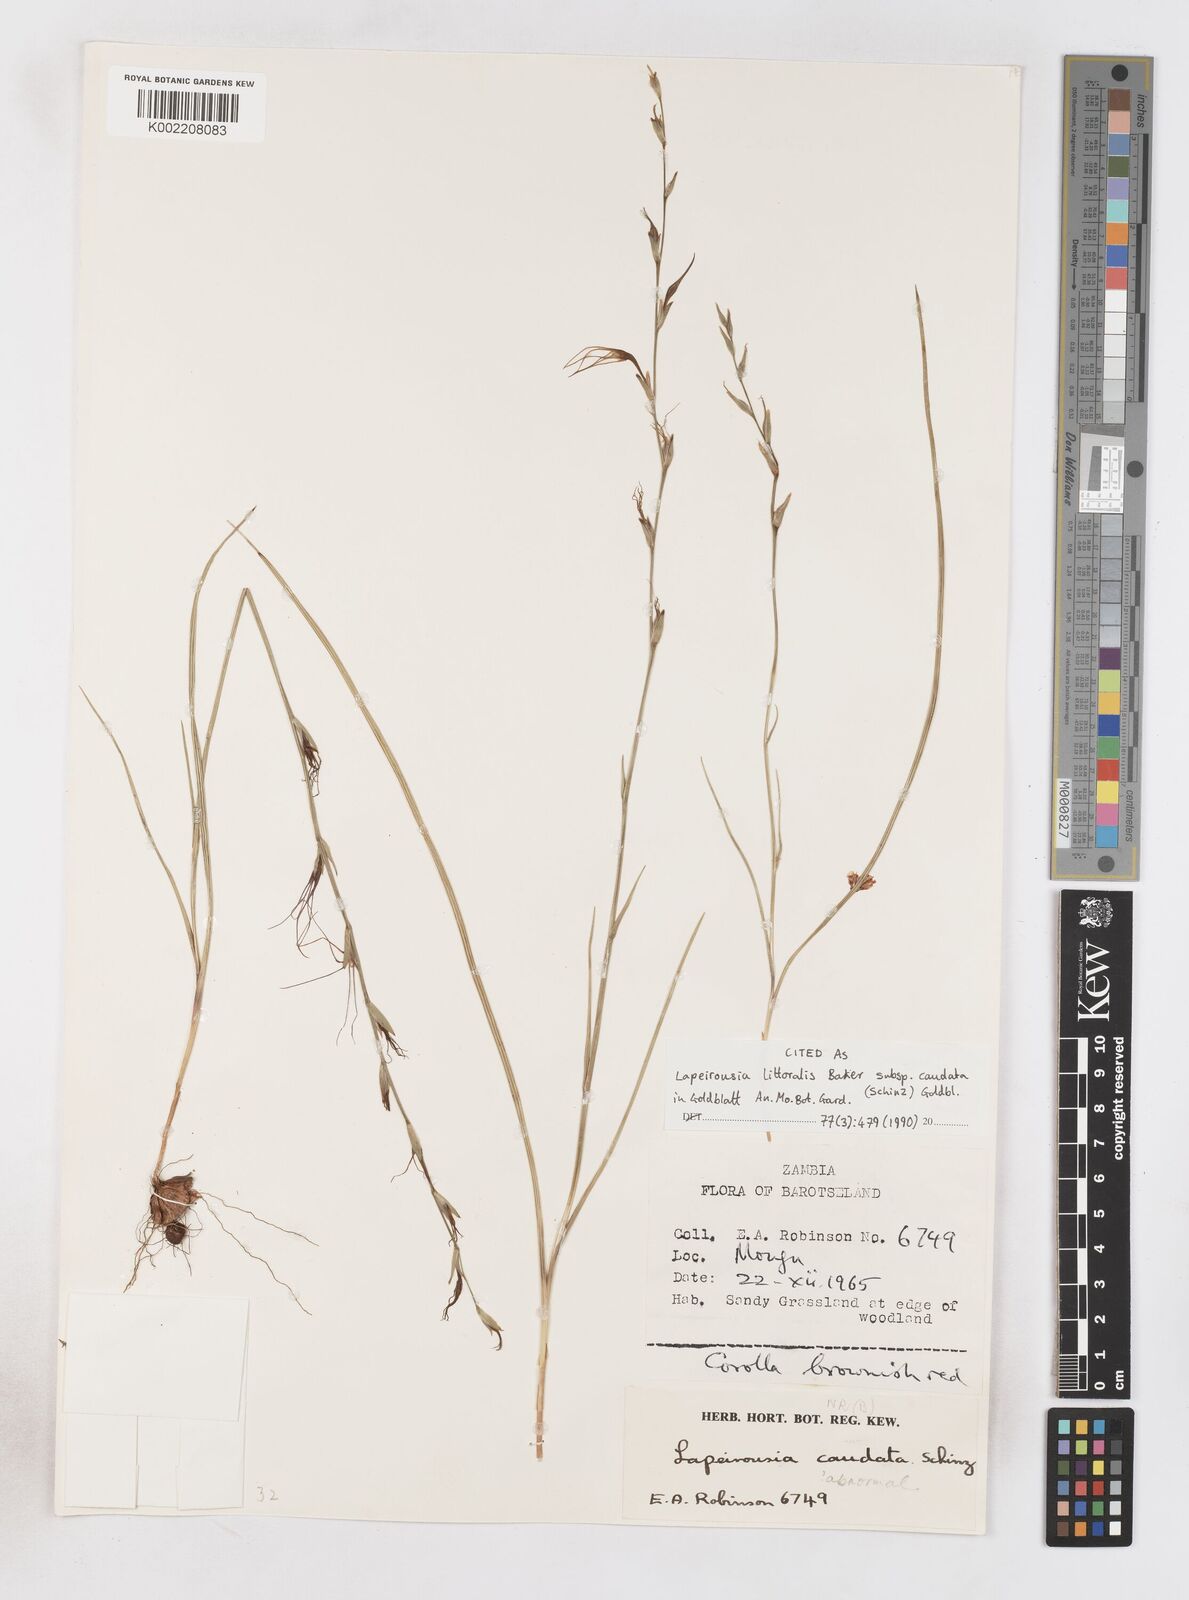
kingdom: Plantae
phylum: Tracheophyta
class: Liliopsida
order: Asparagales
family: Iridaceae
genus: Lapeirousia
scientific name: Lapeirousia caudata
